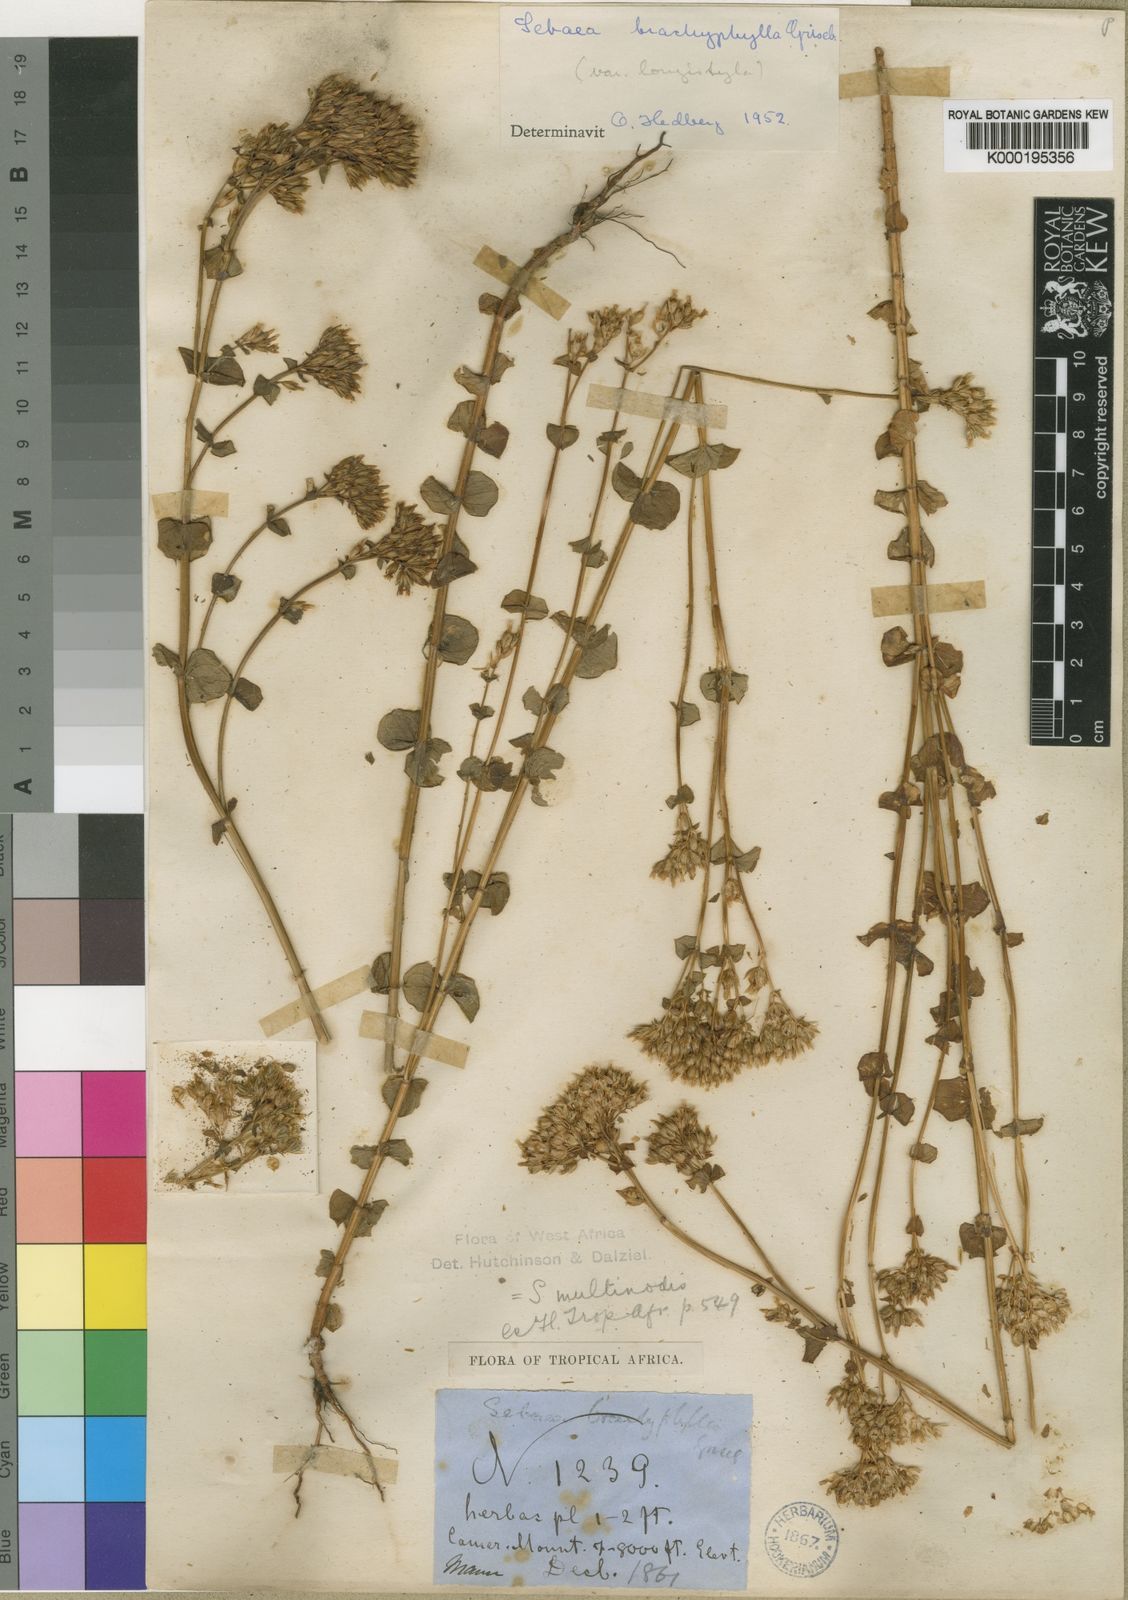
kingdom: Plantae
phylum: Tracheophyta
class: Magnoliopsida
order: Gentianales
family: Gentianaceae
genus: Sebaea
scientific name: Sebaea brachyphylla
